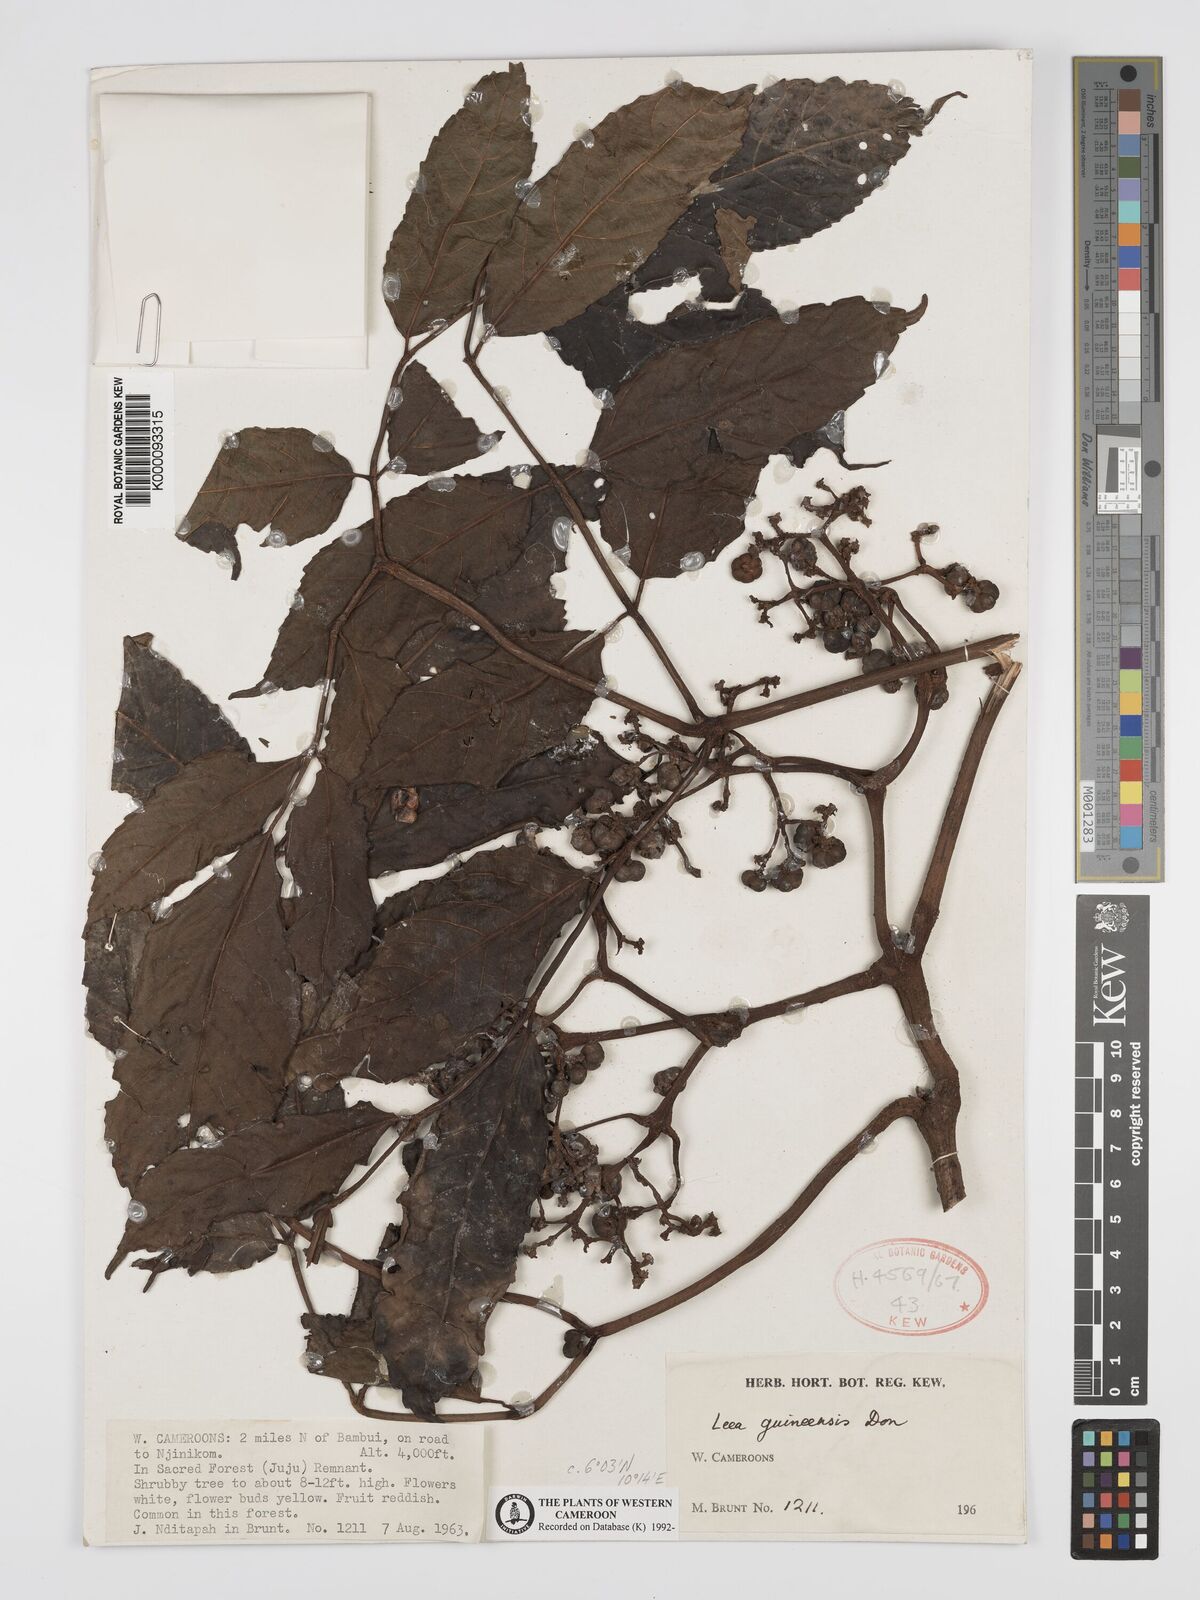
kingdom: Plantae
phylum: Tracheophyta
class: Magnoliopsida
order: Vitales
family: Vitaceae
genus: Leea
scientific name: Leea guineensis
